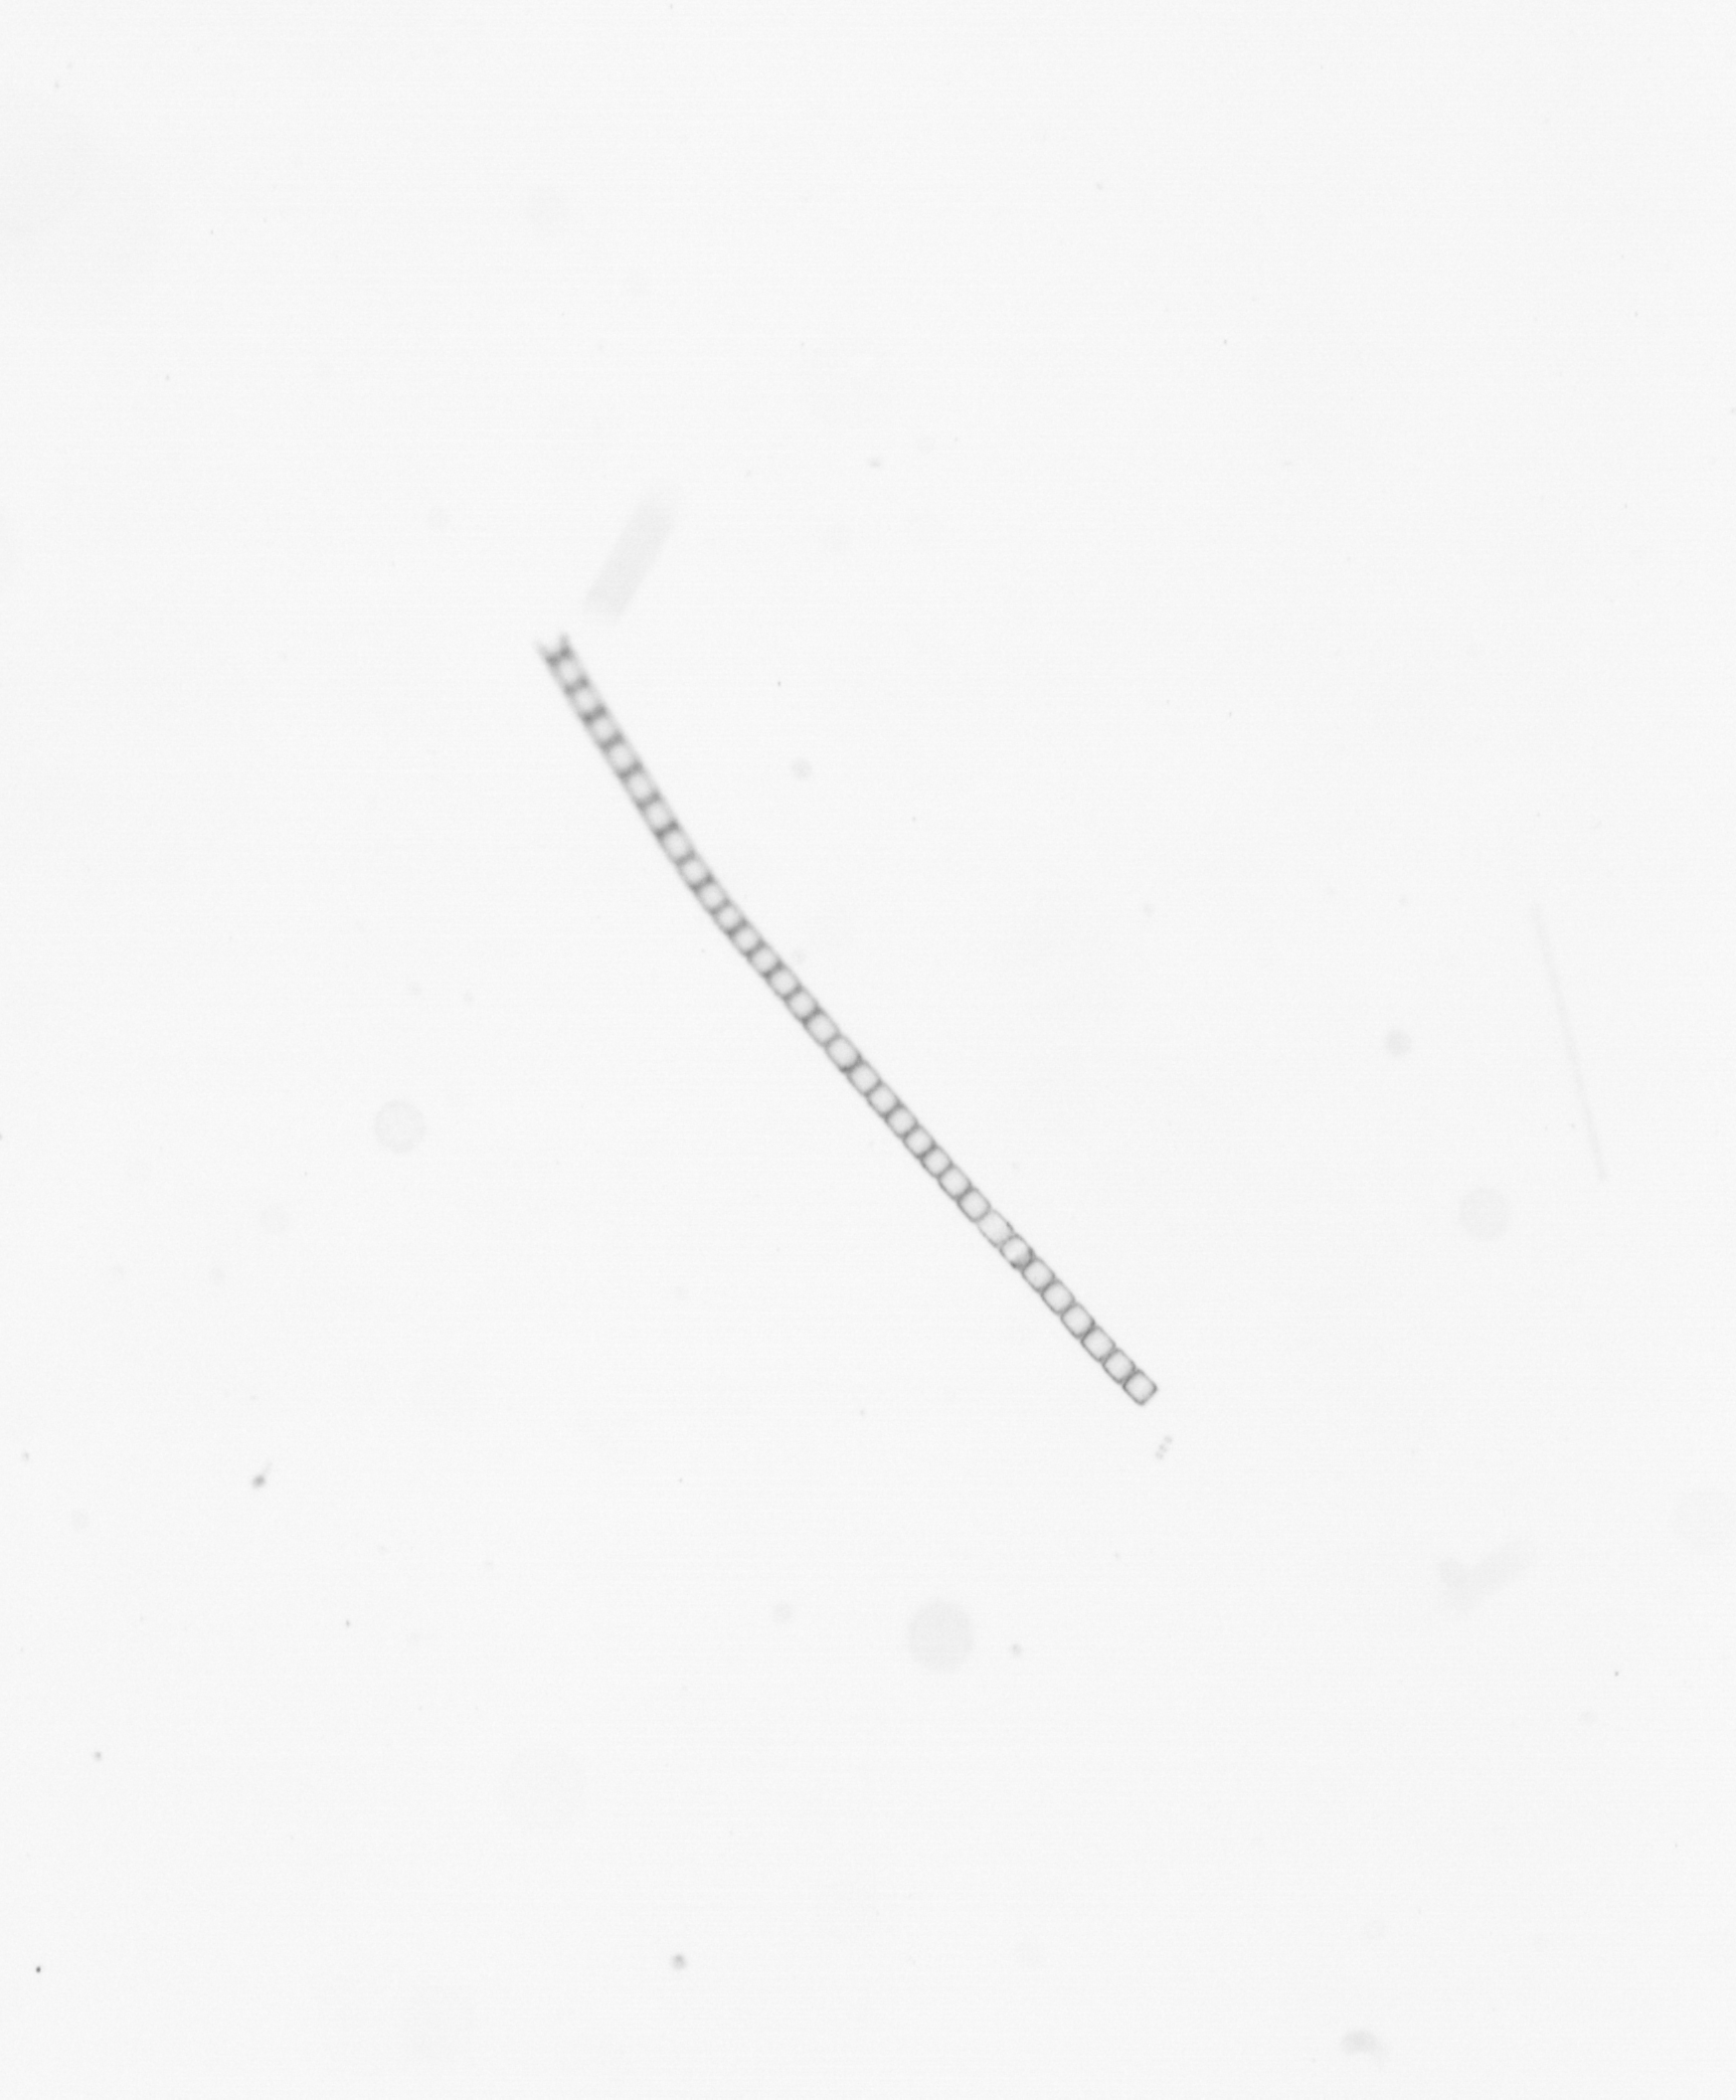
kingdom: Chromista
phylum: Ochrophyta
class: Bacillariophyceae
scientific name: Bacillariophyceae
